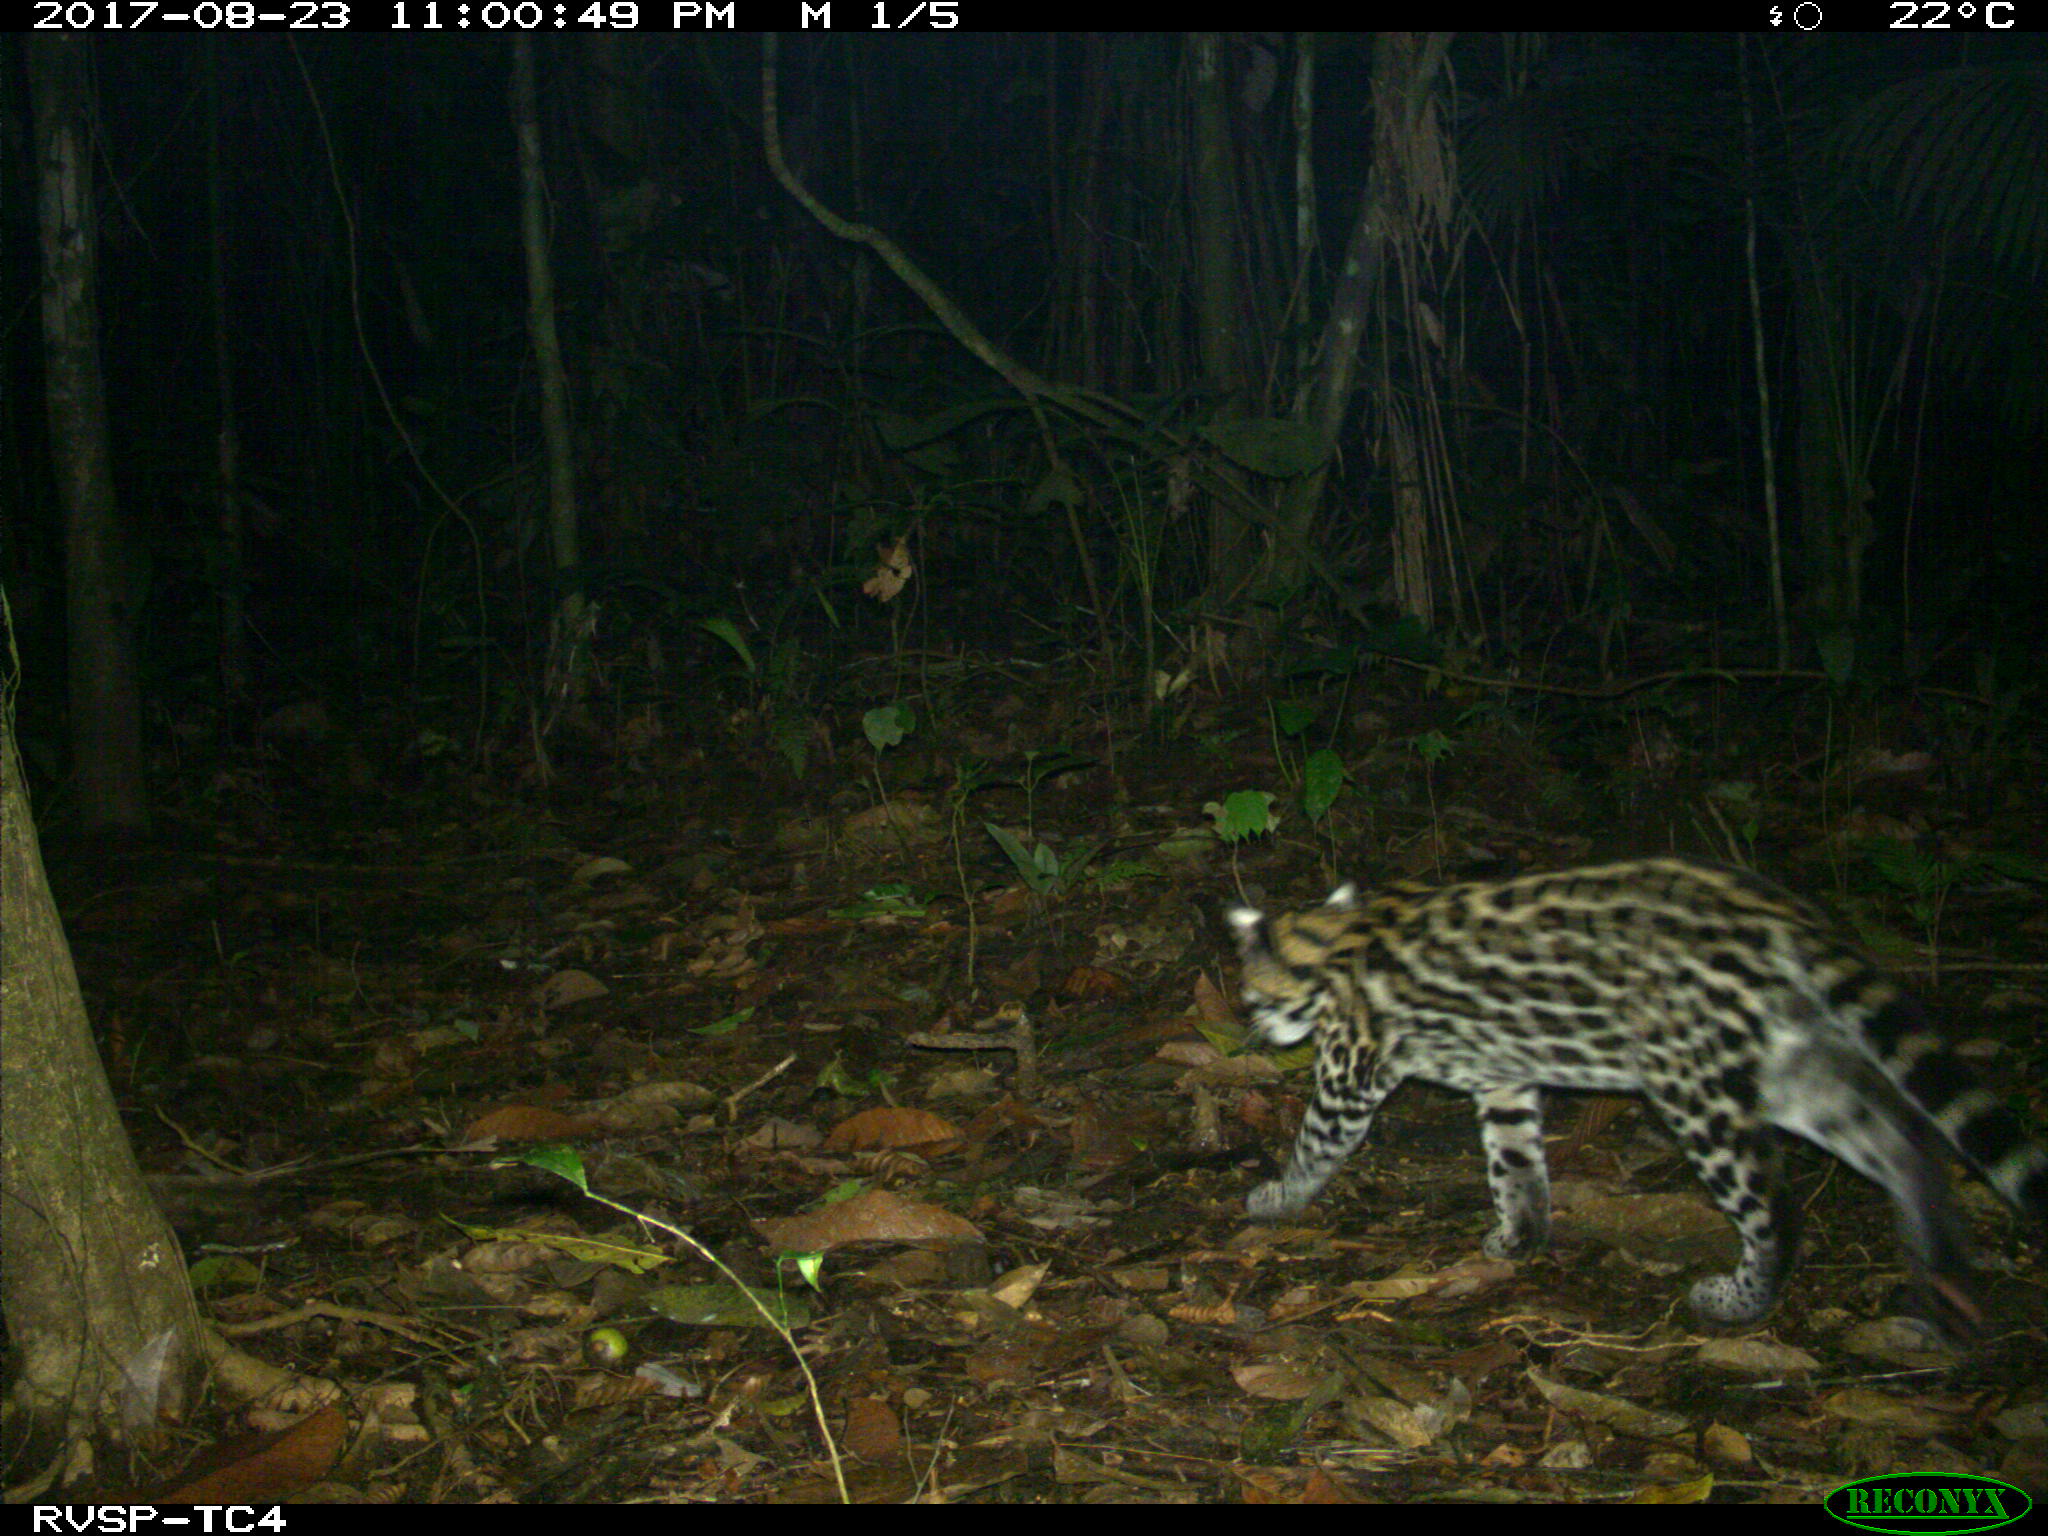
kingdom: Animalia
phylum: Chordata
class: Mammalia
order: Carnivora
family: Felidae
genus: Leopardus
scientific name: Leopardus pardalis
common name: Ocelot
